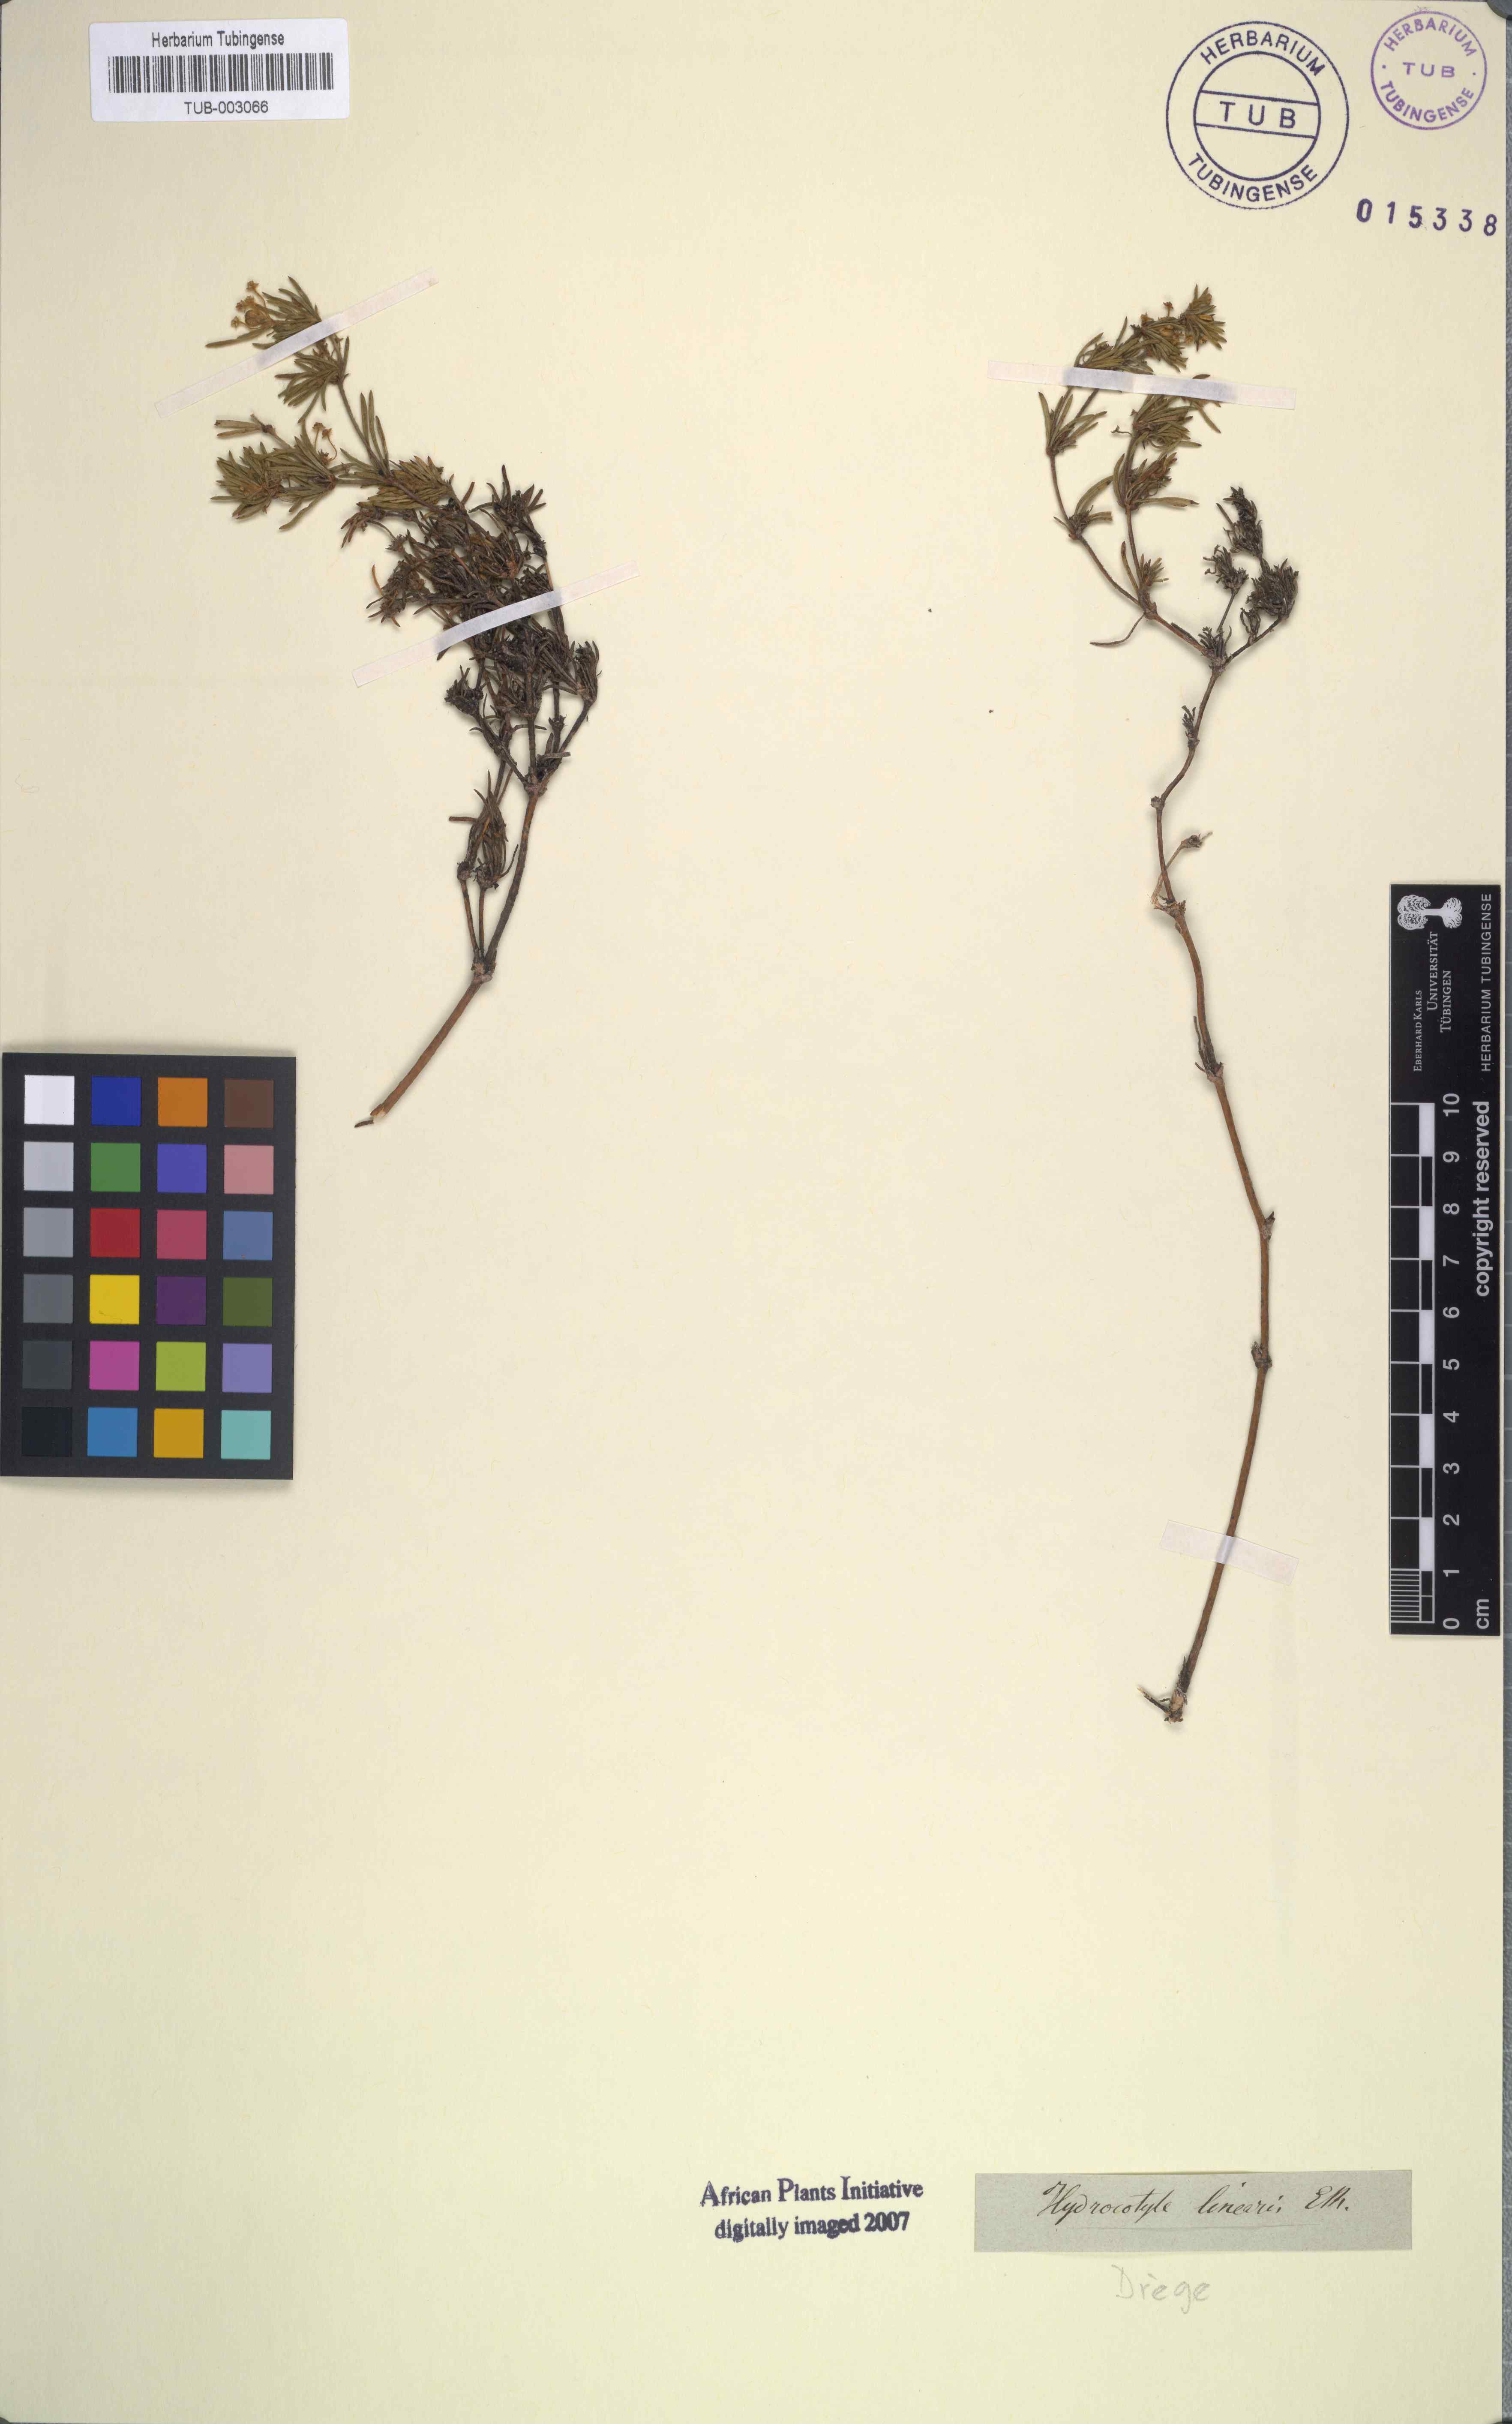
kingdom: Plantae
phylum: Tracheophyta
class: Magnoliopsida
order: Apiales
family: Apiaceae
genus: Centella
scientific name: Centella glabrata
